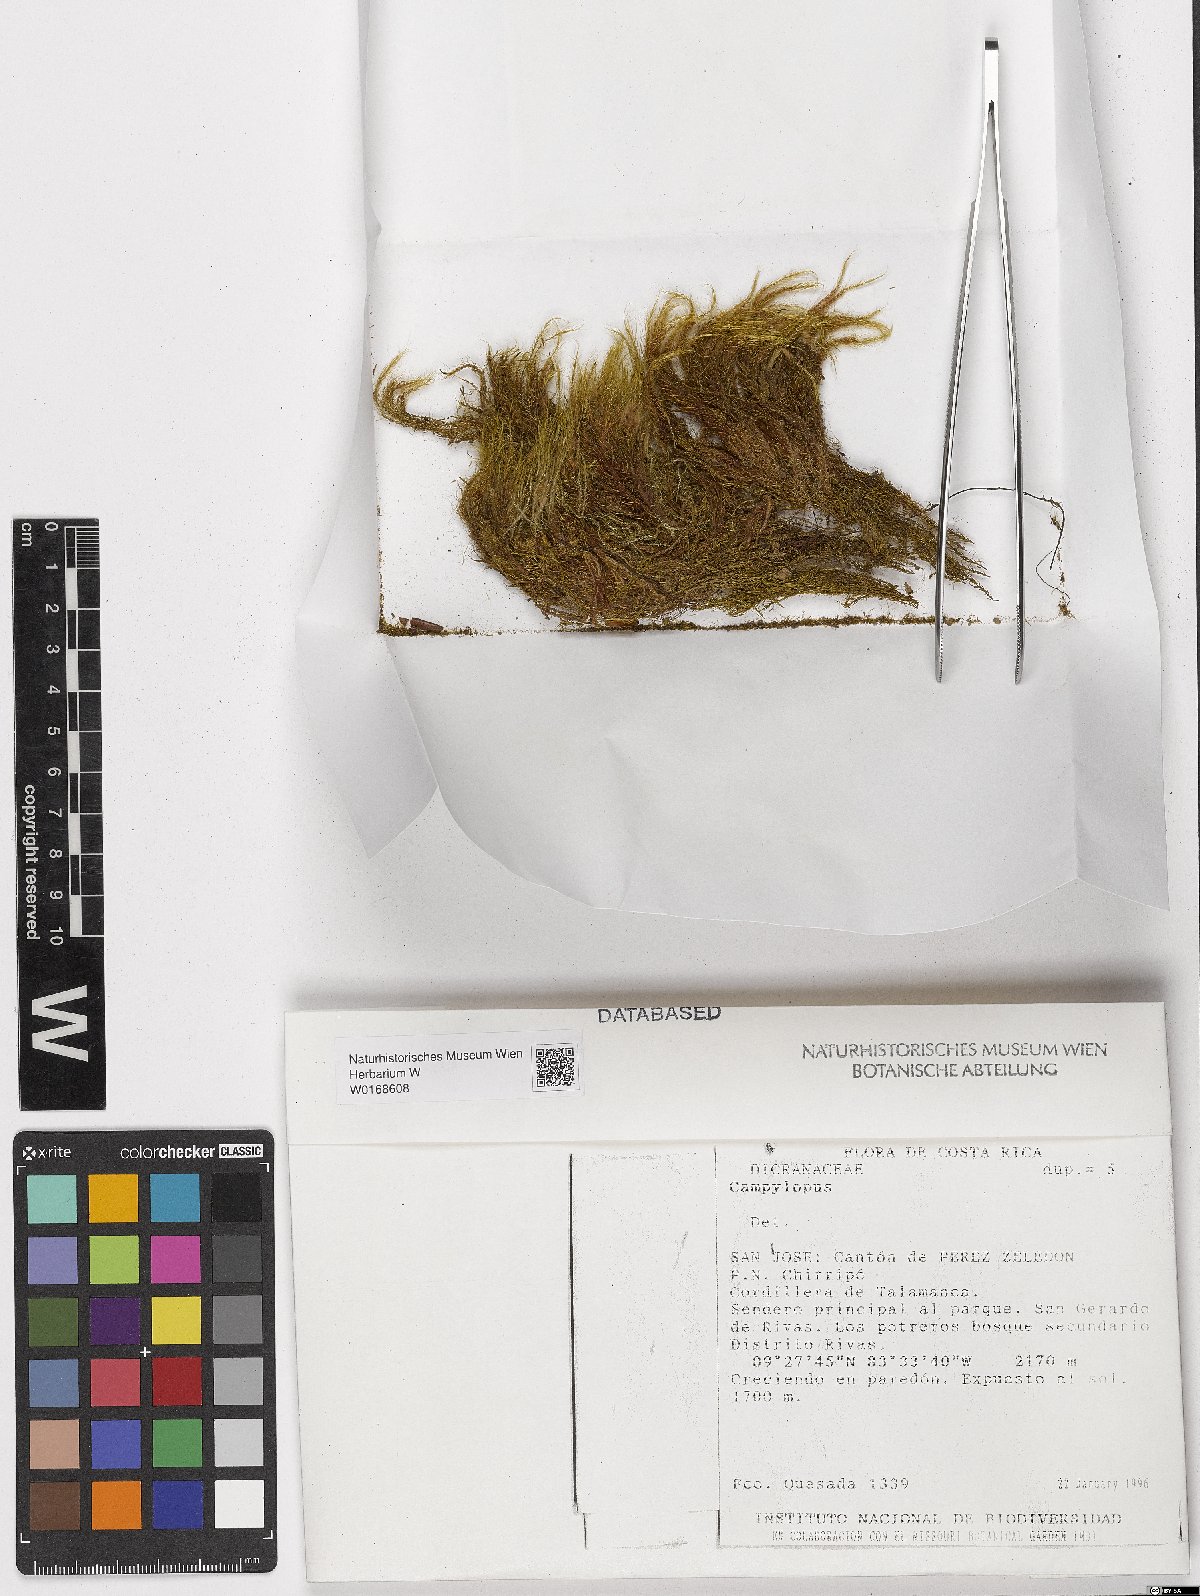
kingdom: Plantae
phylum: Bryophyta
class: Bryopsida
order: Dicranales
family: Leucobryaceae
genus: Campylopus
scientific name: Campylopus
